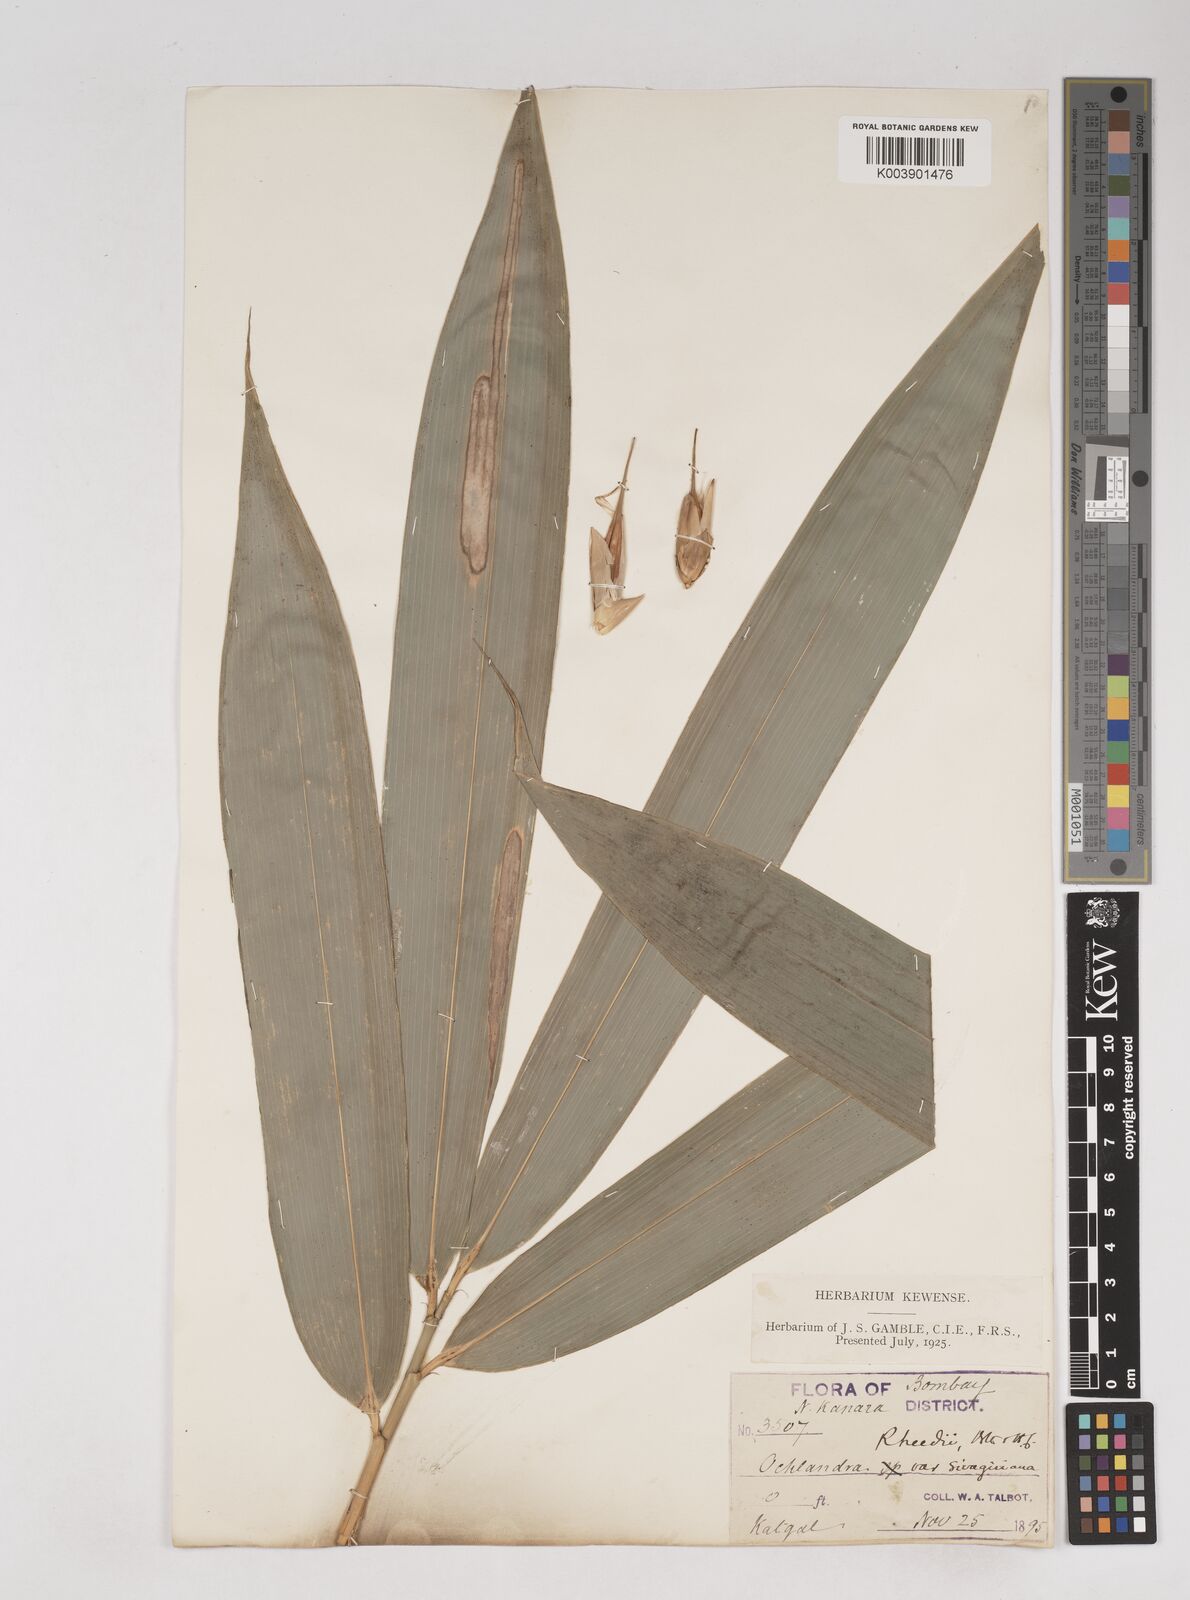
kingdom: Plantae
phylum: Tracheophyta
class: Liliopsida
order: Poales
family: Poaceae
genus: Ochlandra
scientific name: Ochlandra scriptoria
